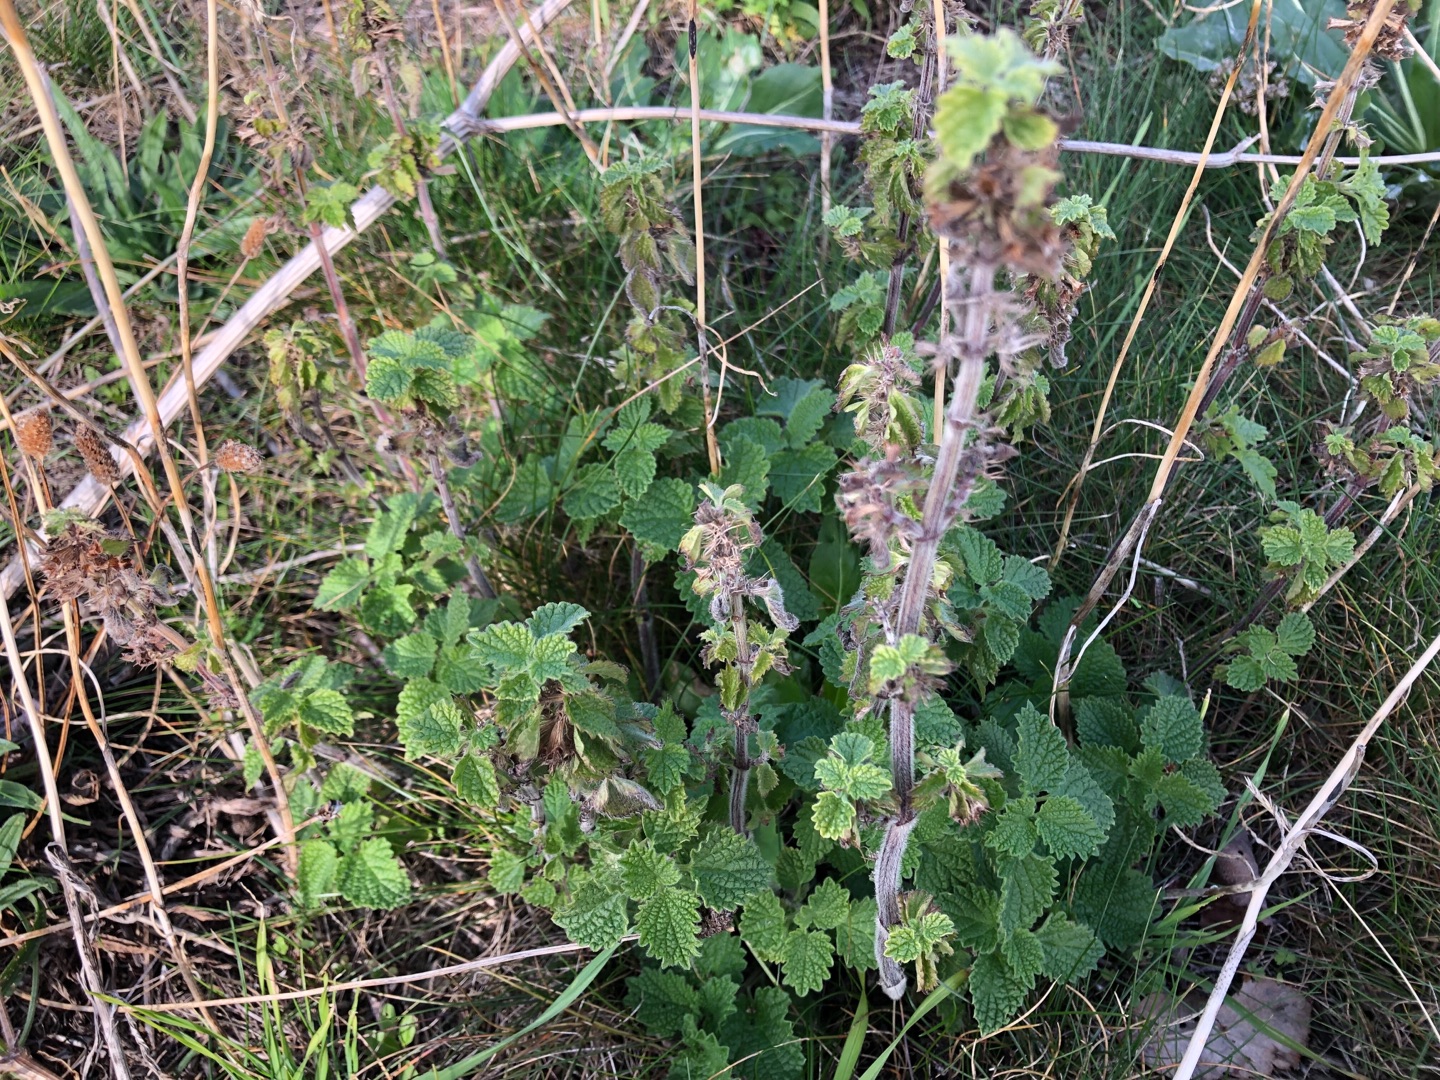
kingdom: Plantae
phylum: Tracheophyta
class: Magnoliopsida
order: Lamiales
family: Lamiaceae
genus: Ballota
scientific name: Ballota nigra
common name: Tandbæger
